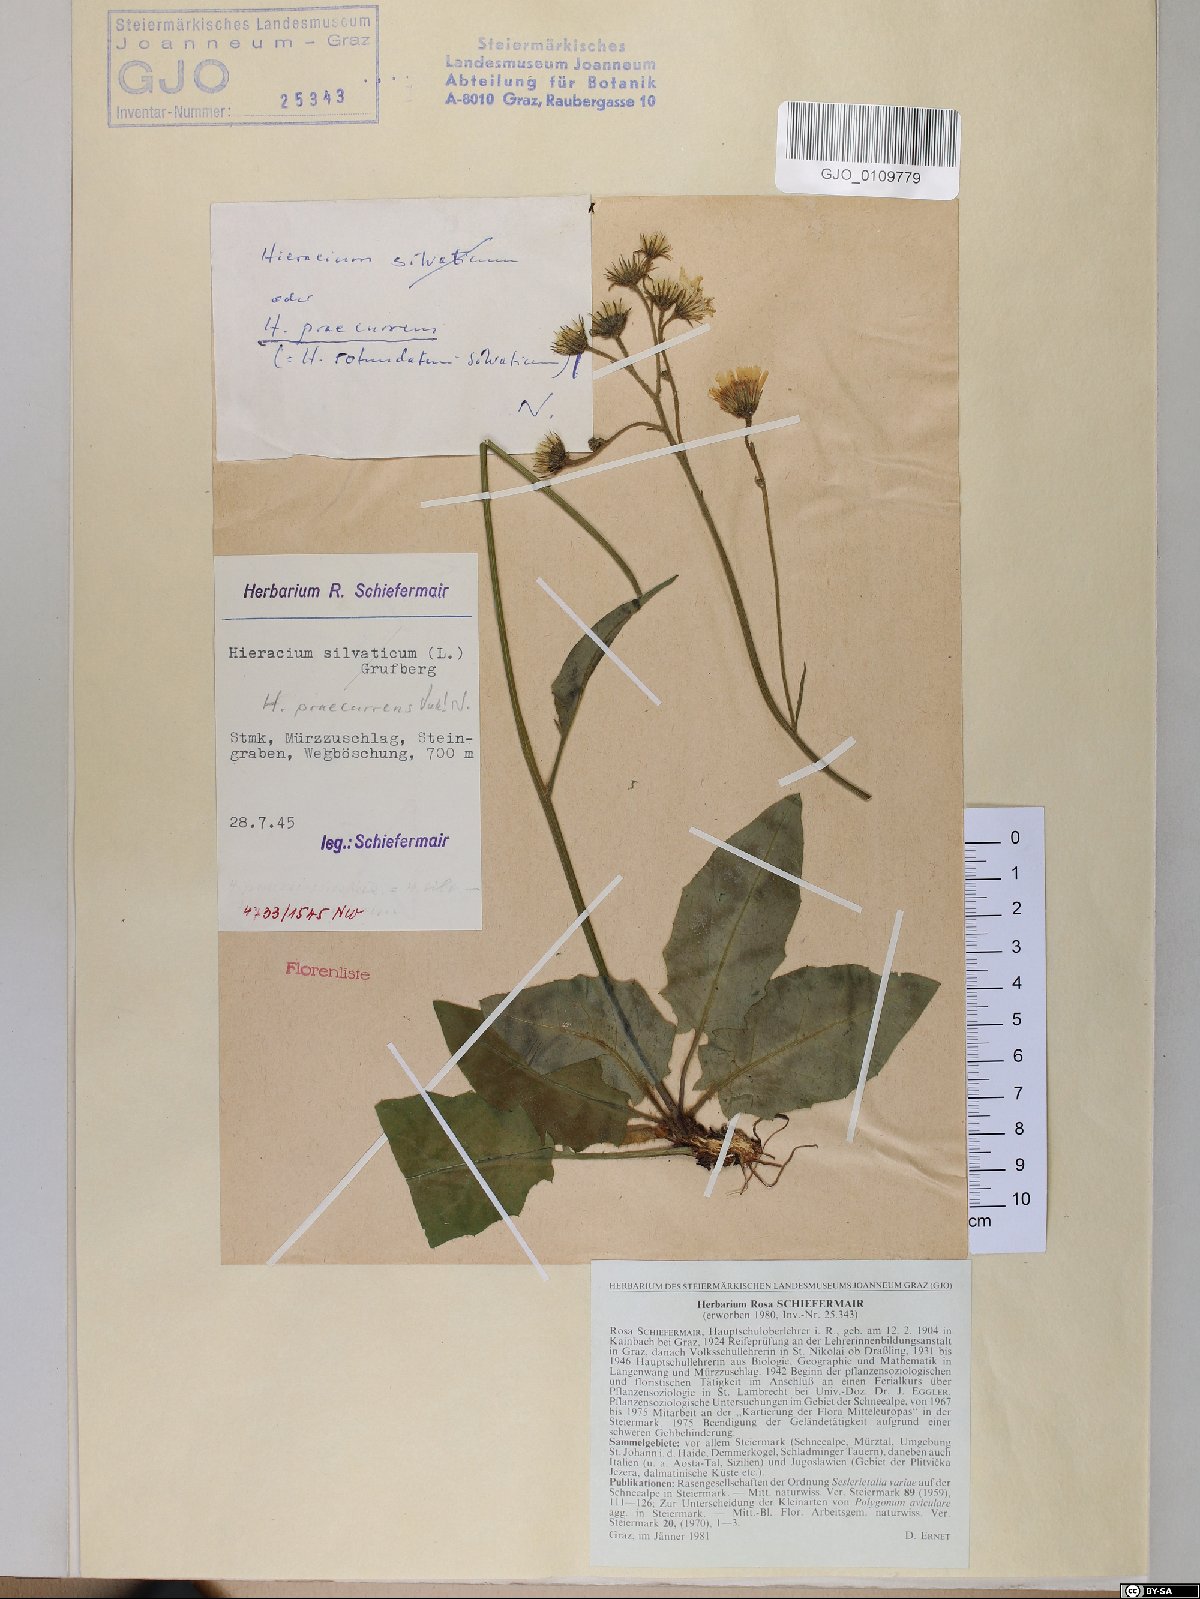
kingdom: Plantae
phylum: Tracheophyta
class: Magnoliopsida
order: Asterales
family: Asteraceae
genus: Hieracium
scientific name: Hieracium rotundatum
